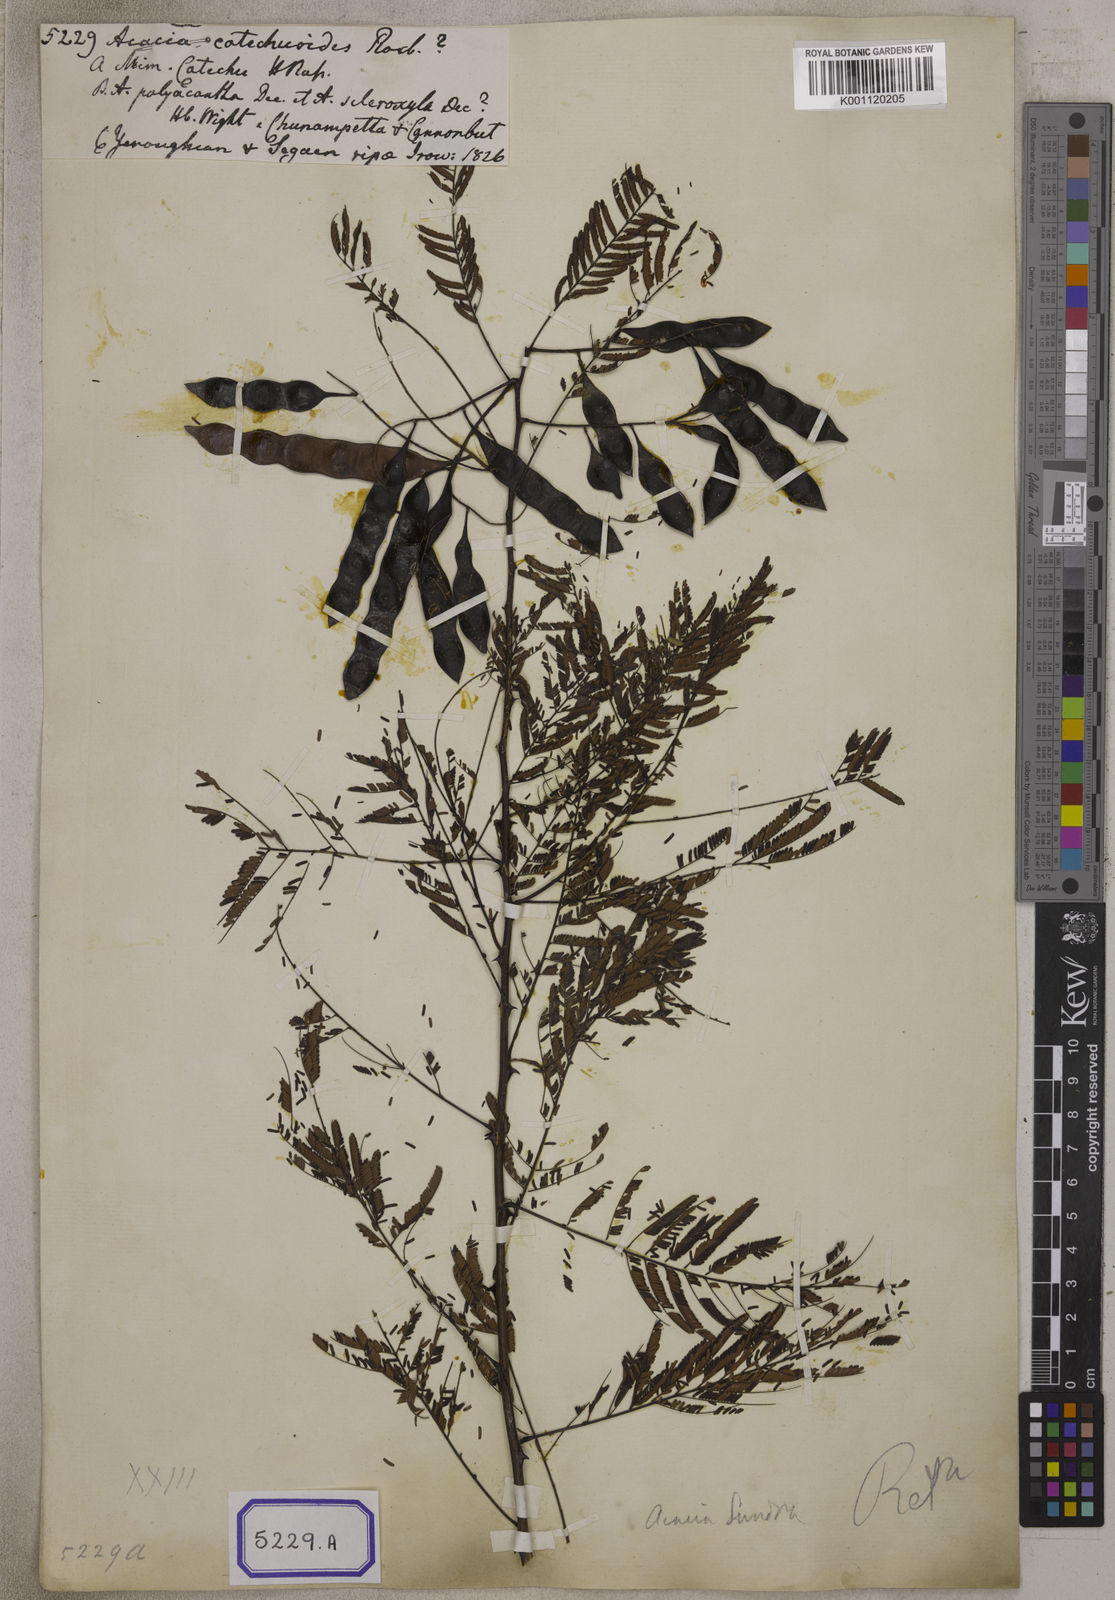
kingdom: Plantae
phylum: Tracheophyta
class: Magnoliopsida
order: Fabales
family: Fabaceae
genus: Senegalia
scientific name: Senegalia catechu
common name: Black cutch
